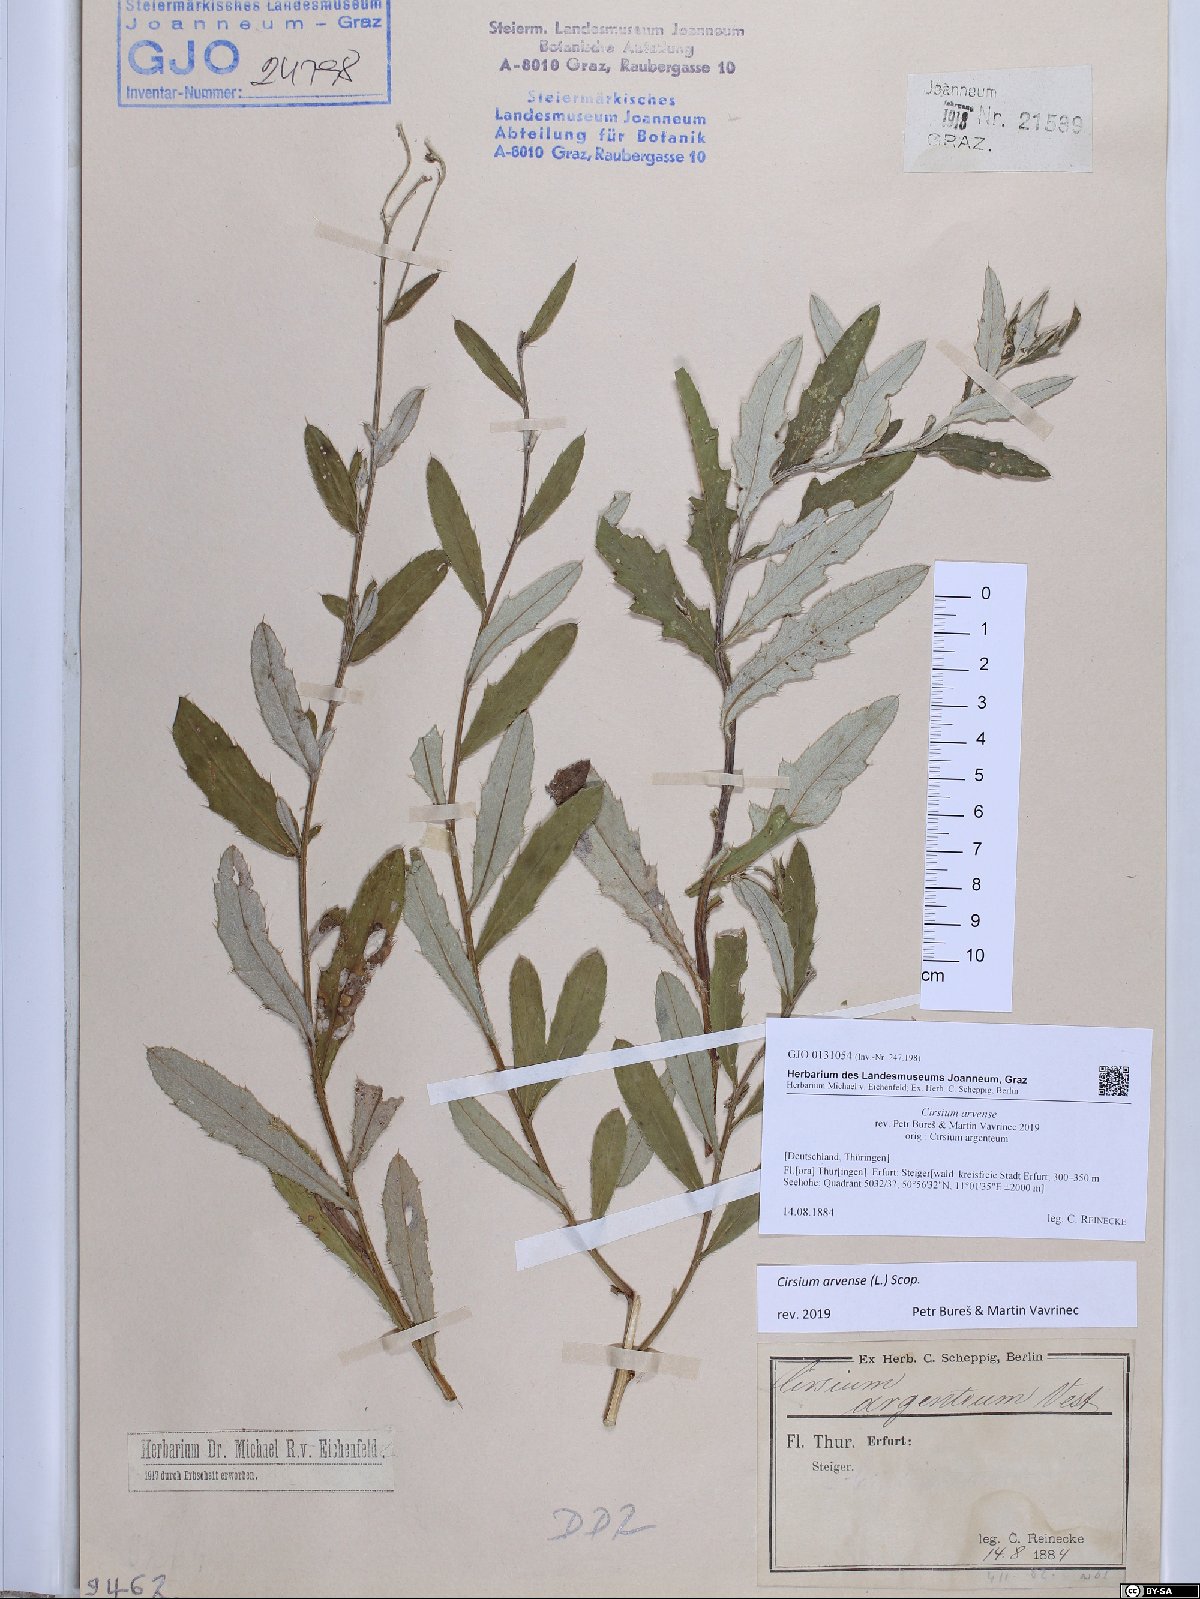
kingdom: Plantae
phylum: Tracheophyta
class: Magnoliopsida
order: Asterales
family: Asteraceae
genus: Cirsium
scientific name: Cirsium arvense
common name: Creeping thistle
